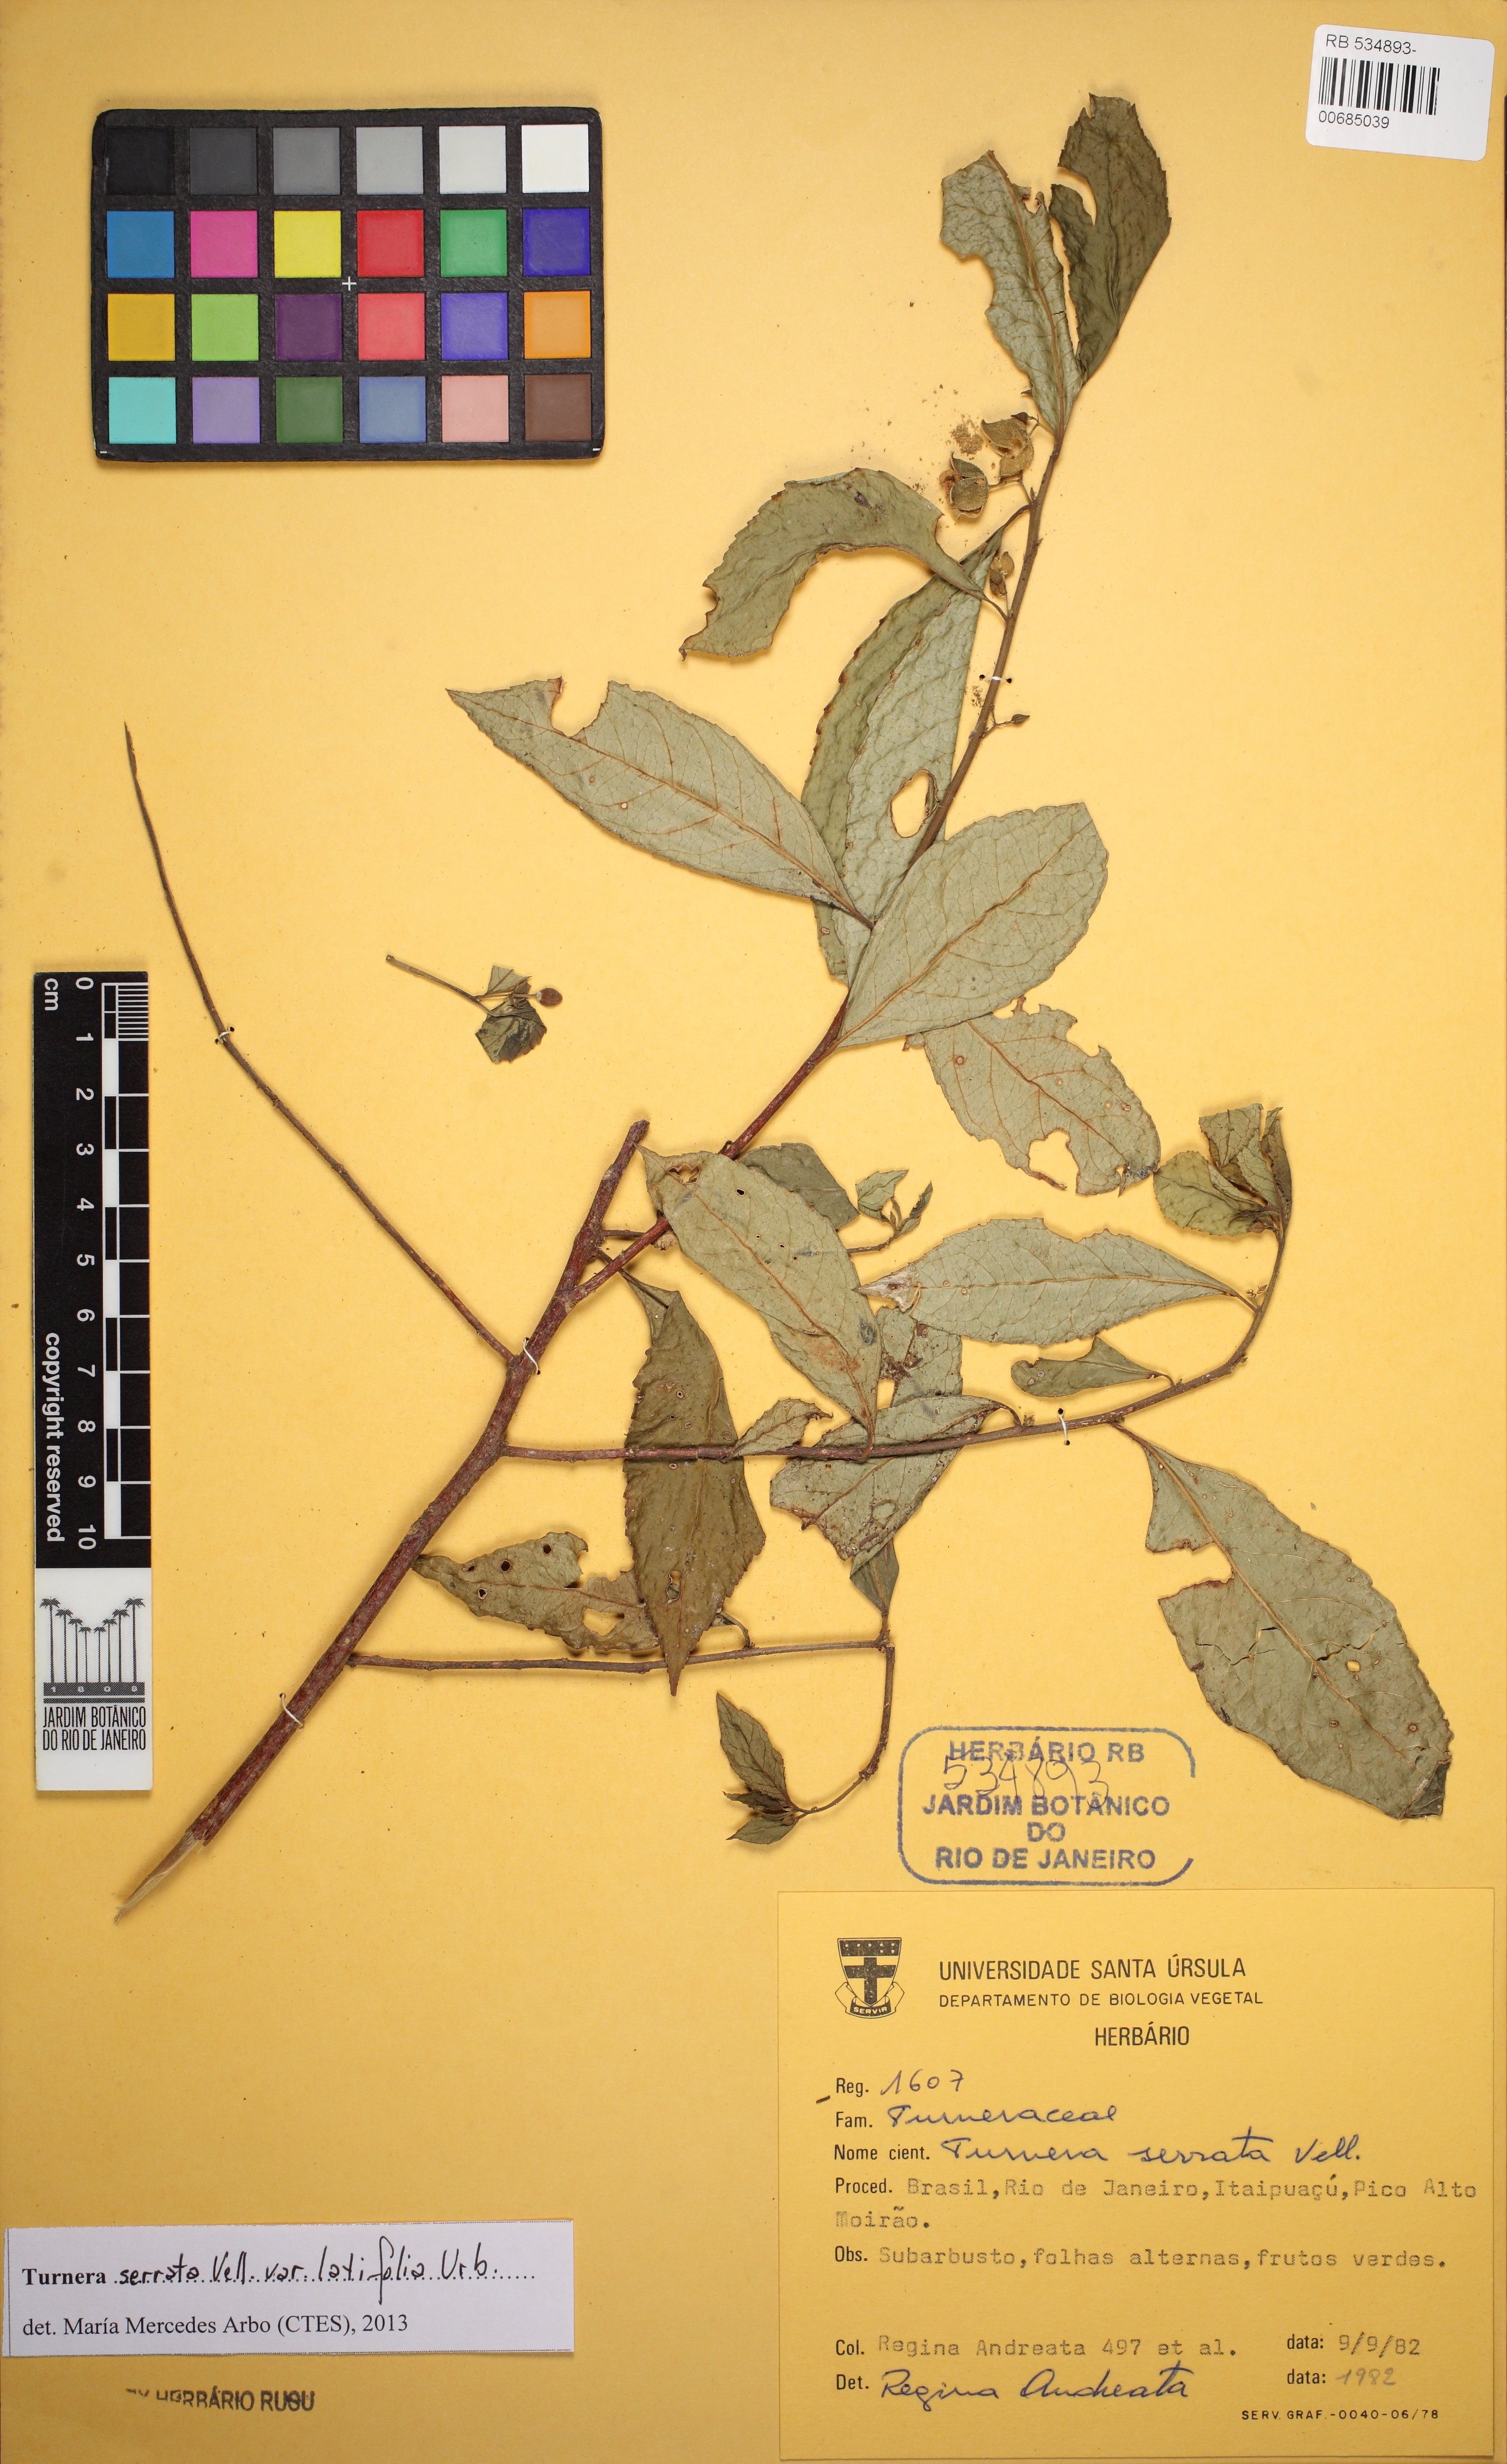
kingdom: Plantae
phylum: Tracheophyta
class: Magnoliopsida
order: Malpighiales
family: Turneraceae
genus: Turnera
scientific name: Turnera serrata
